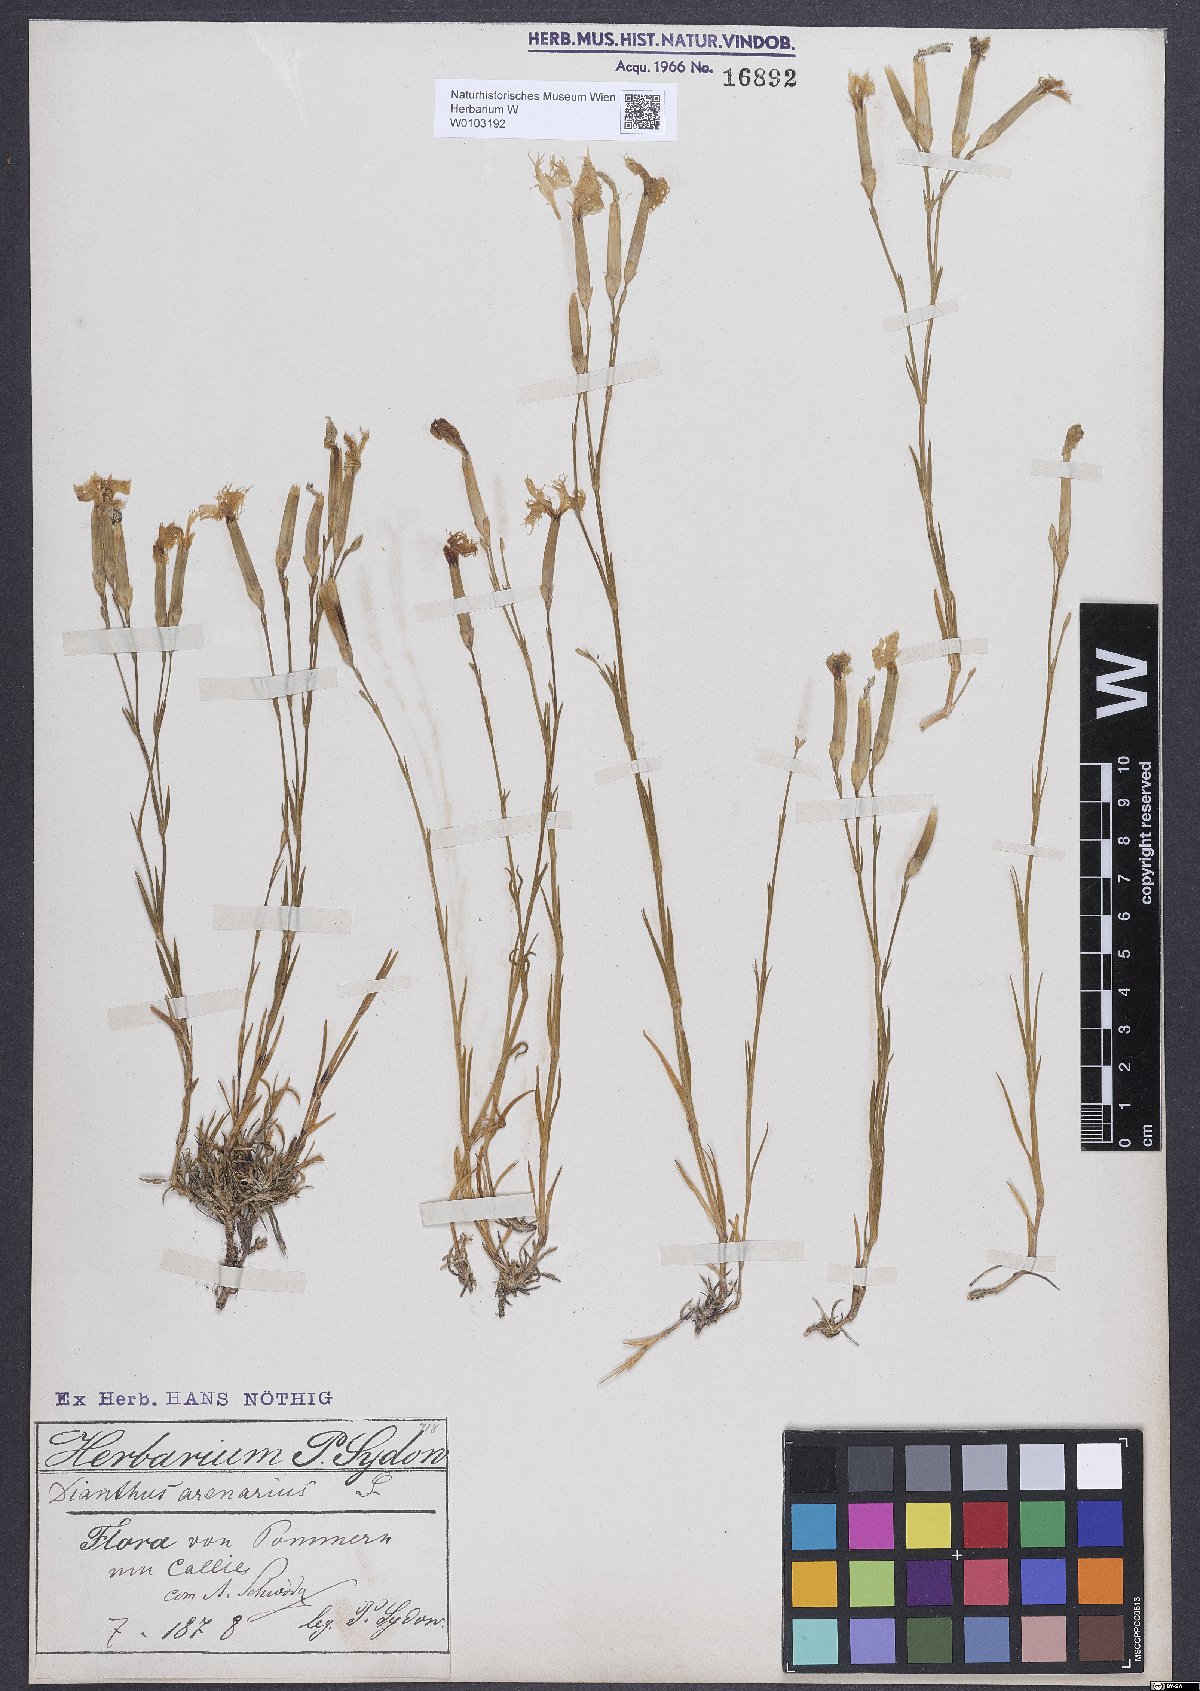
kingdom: Plantae
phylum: Tracheophyta
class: Magnoliopsida
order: Caryophyllales
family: Caryophyllaceae
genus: Dianthus
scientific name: Dianthus arenarius
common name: Stone pink
